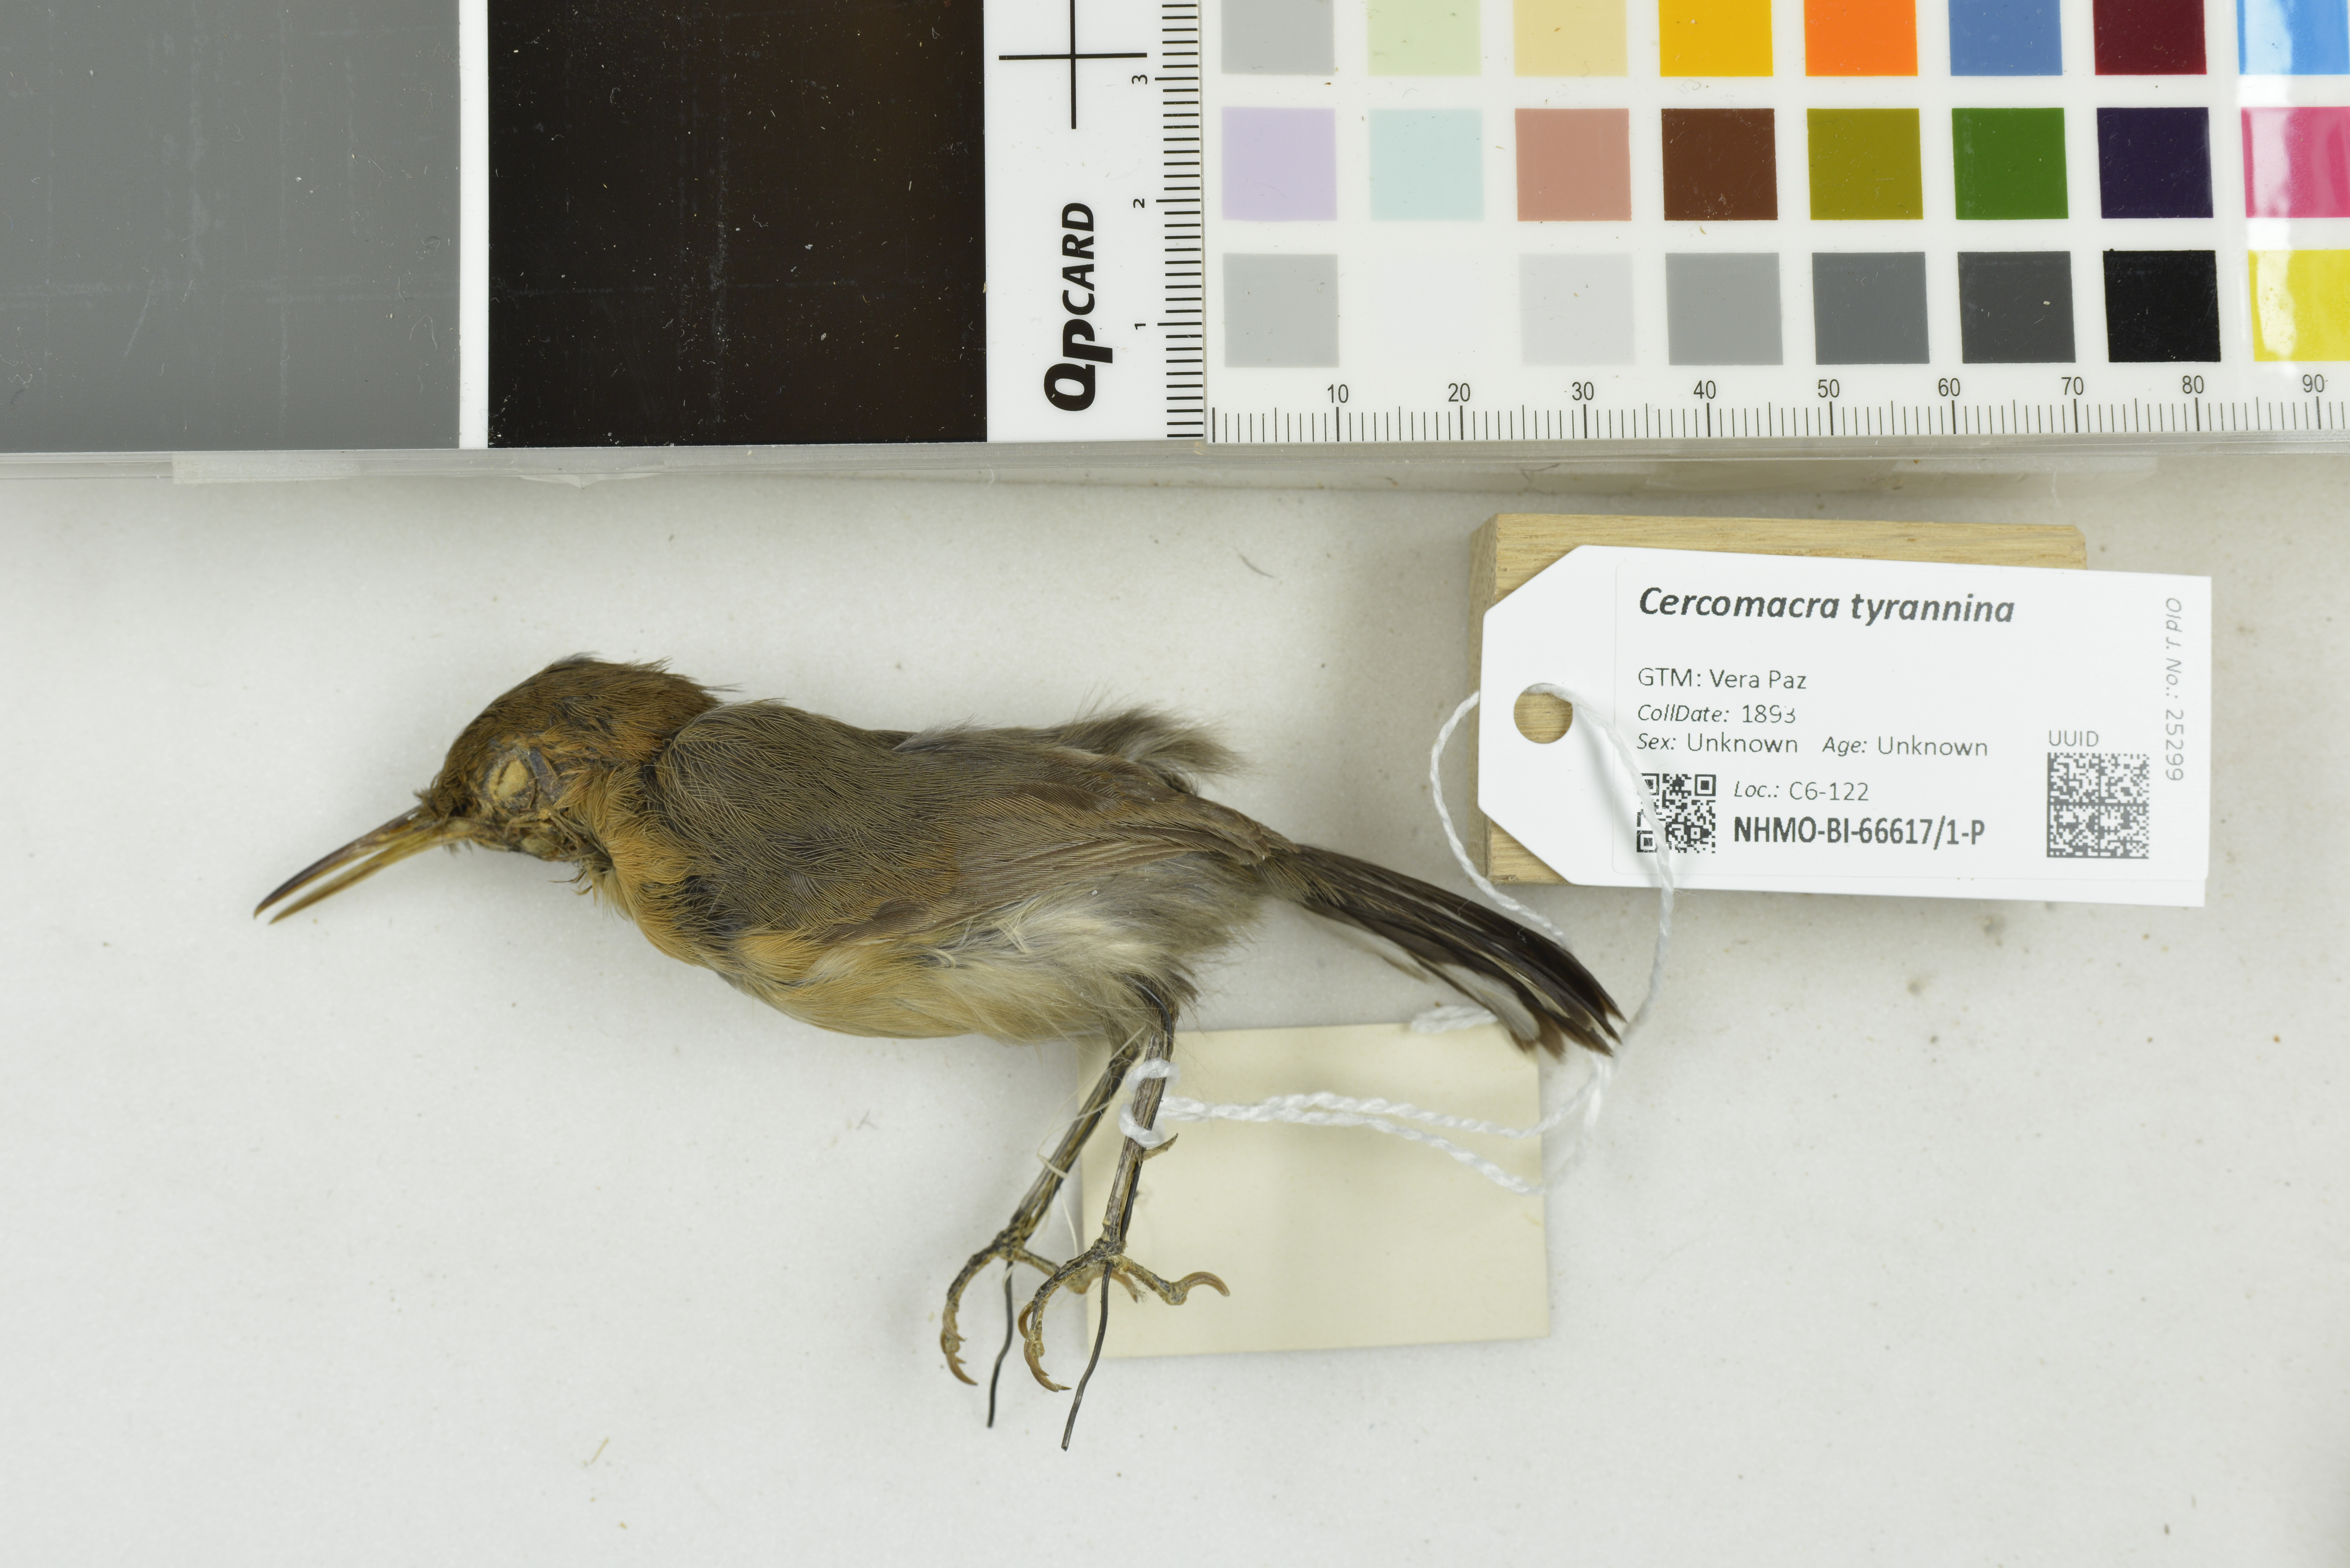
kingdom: Animalia
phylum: Chordata
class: Aves
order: Passeriformes
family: Thamnophilidae
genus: Cercomacra
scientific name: Cercomacra tyrannina
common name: Dusky antbird
